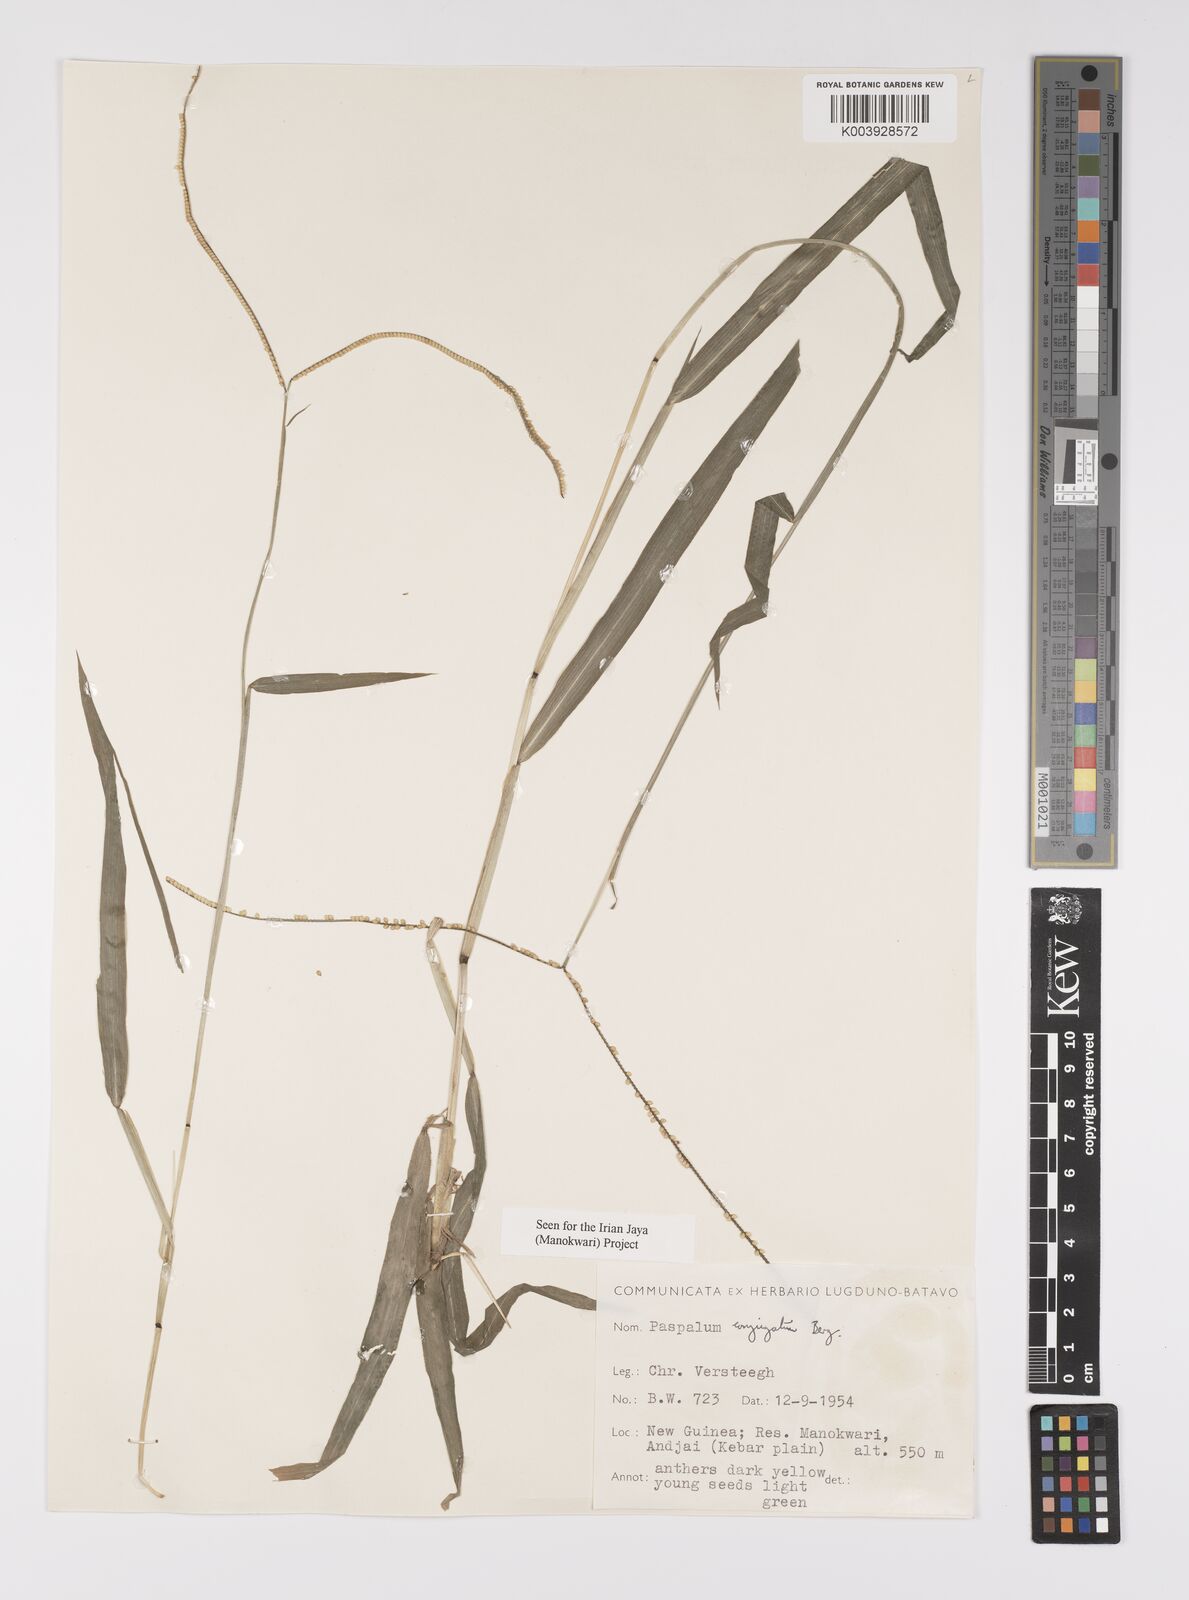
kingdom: Plantae
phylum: Tracheophyta
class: Liliopsida
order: Poales
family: Poaceae
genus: Paspalum
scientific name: Paspalum conjugatum
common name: Hilograss
